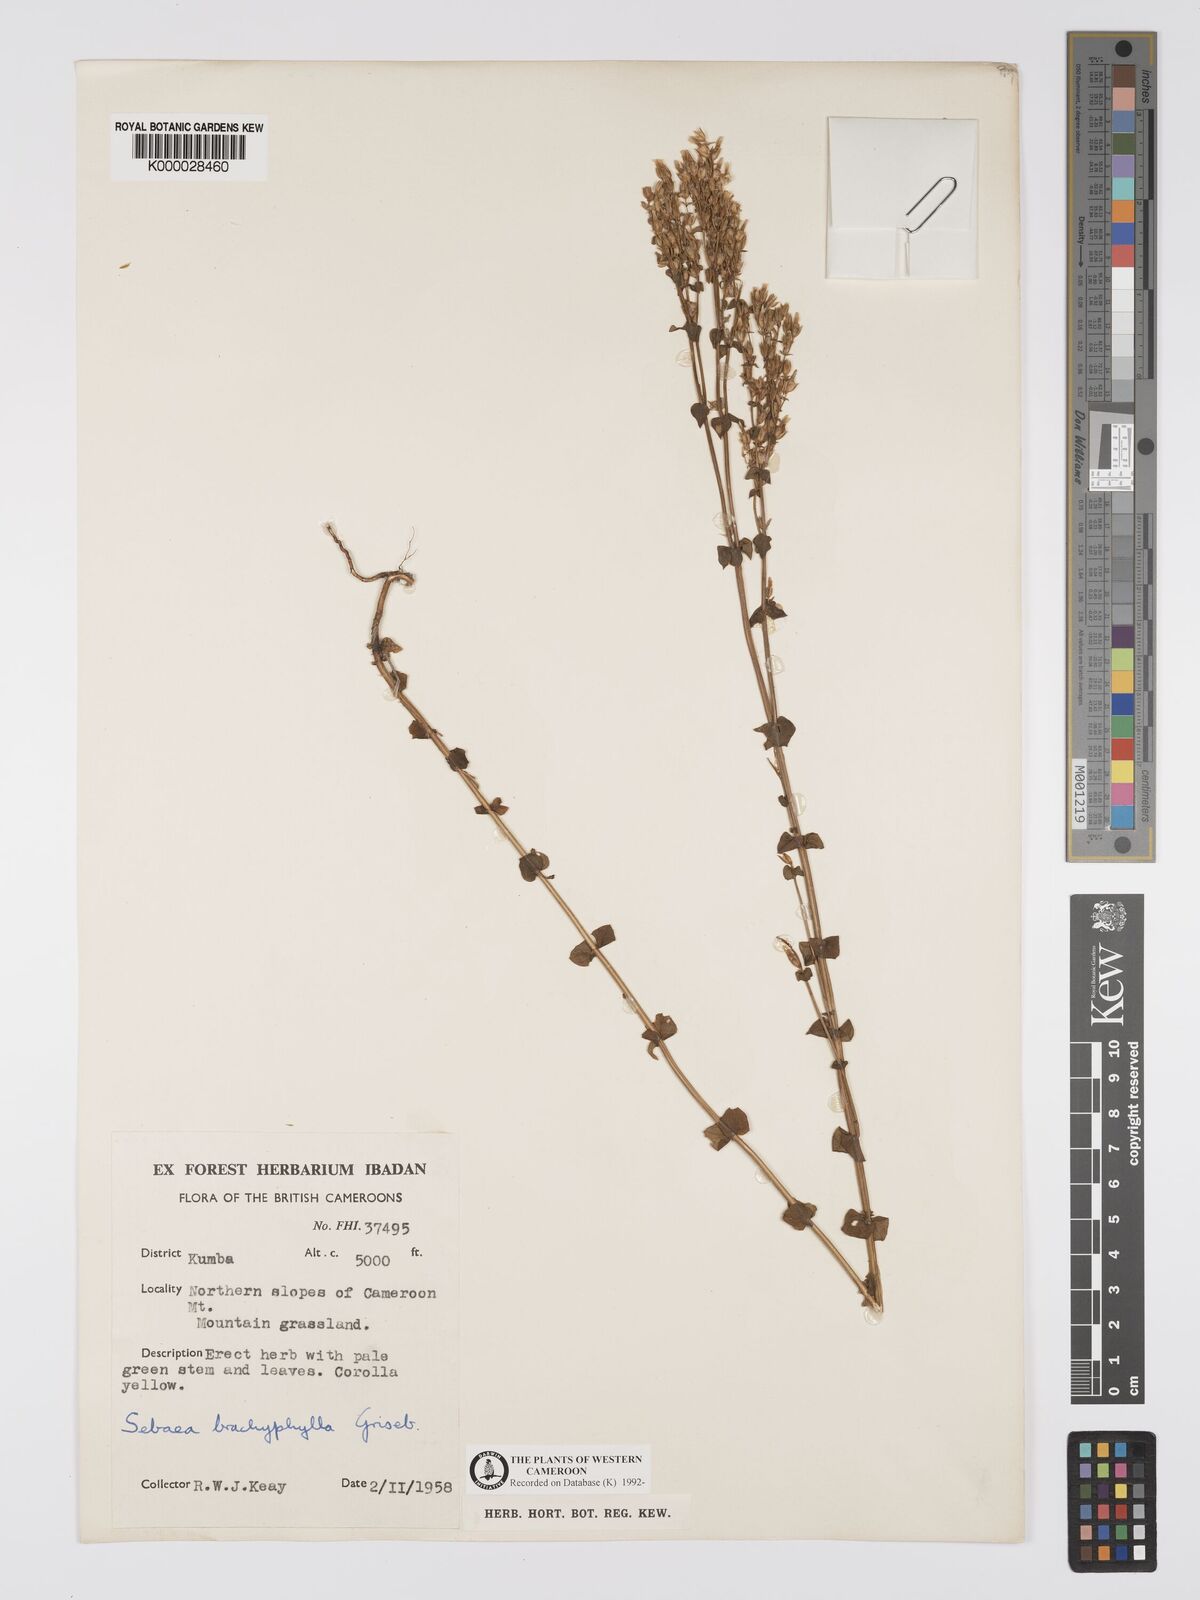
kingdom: Plantae
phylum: Tracheophyta
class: Magnoliopsida
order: Gentianales
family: Gentianaceae
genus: Sebaea
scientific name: Sebaea brachyphylla
